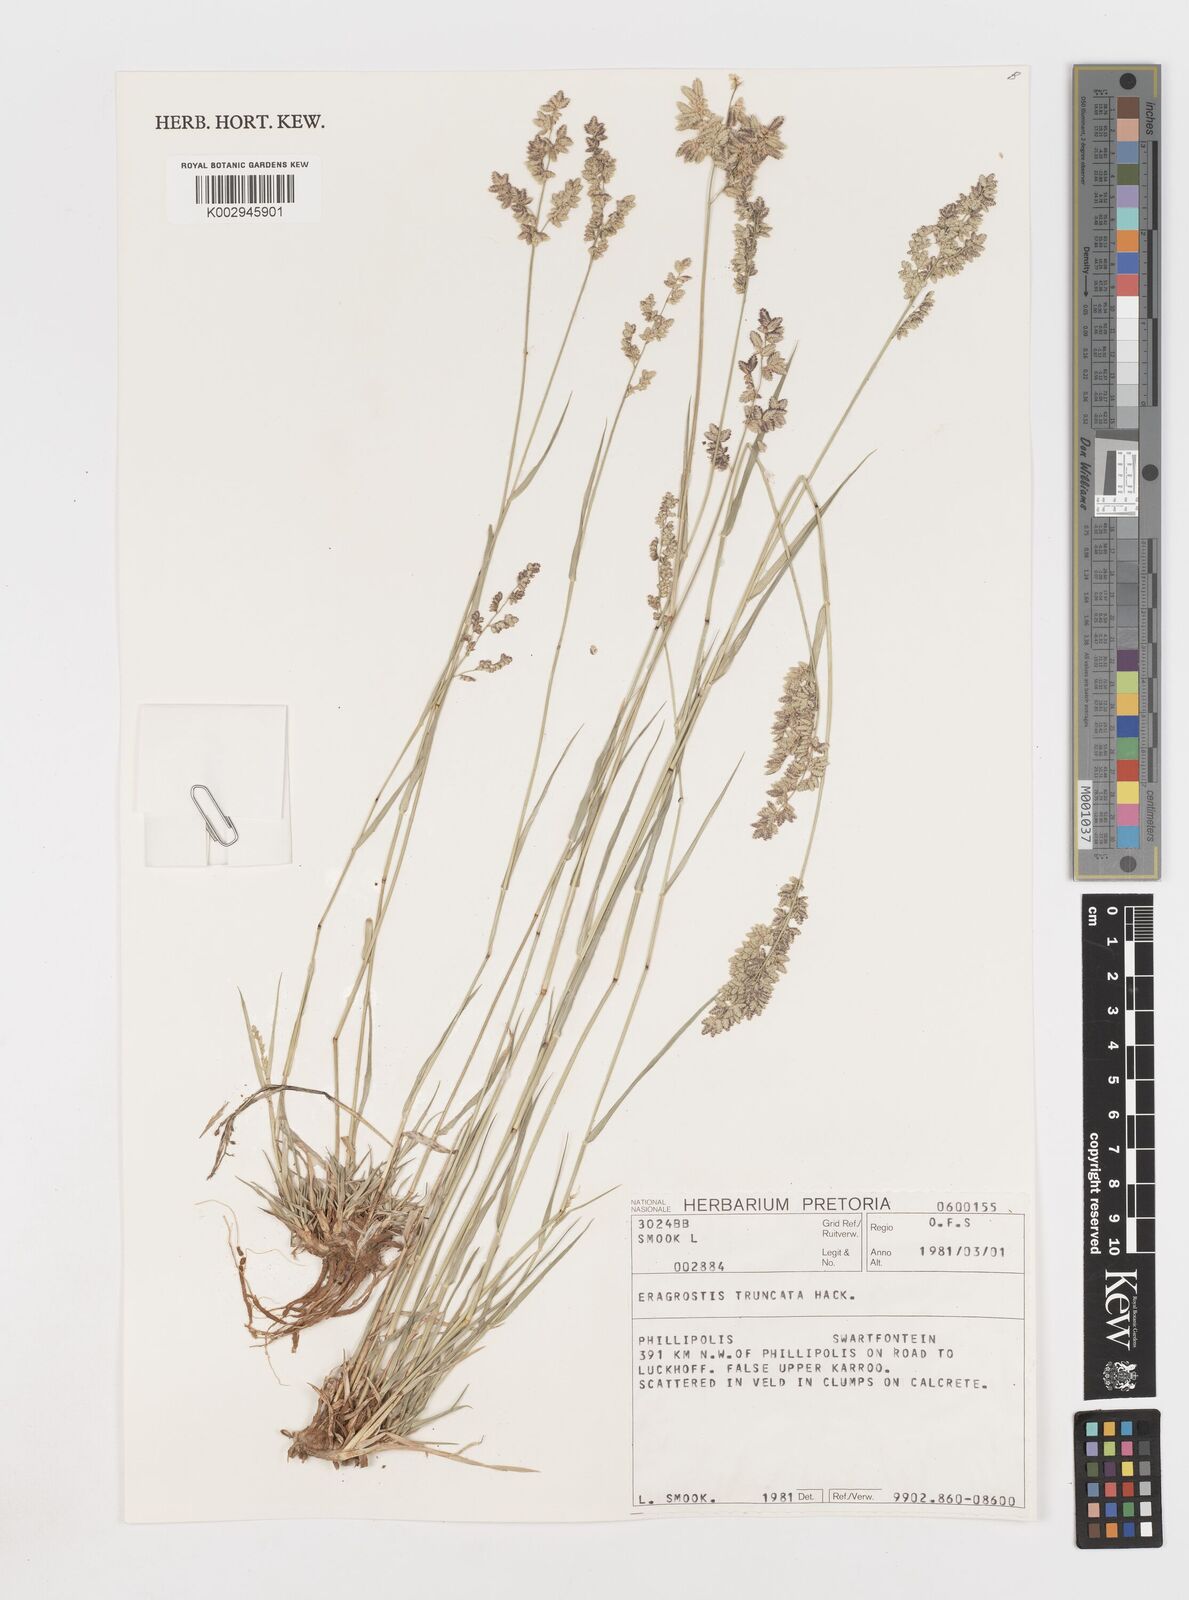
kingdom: Plantae
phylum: Tracheophyta
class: Liliopsida
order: Poales
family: Poaceae
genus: Eragrostis
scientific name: Eragrostis truncata
